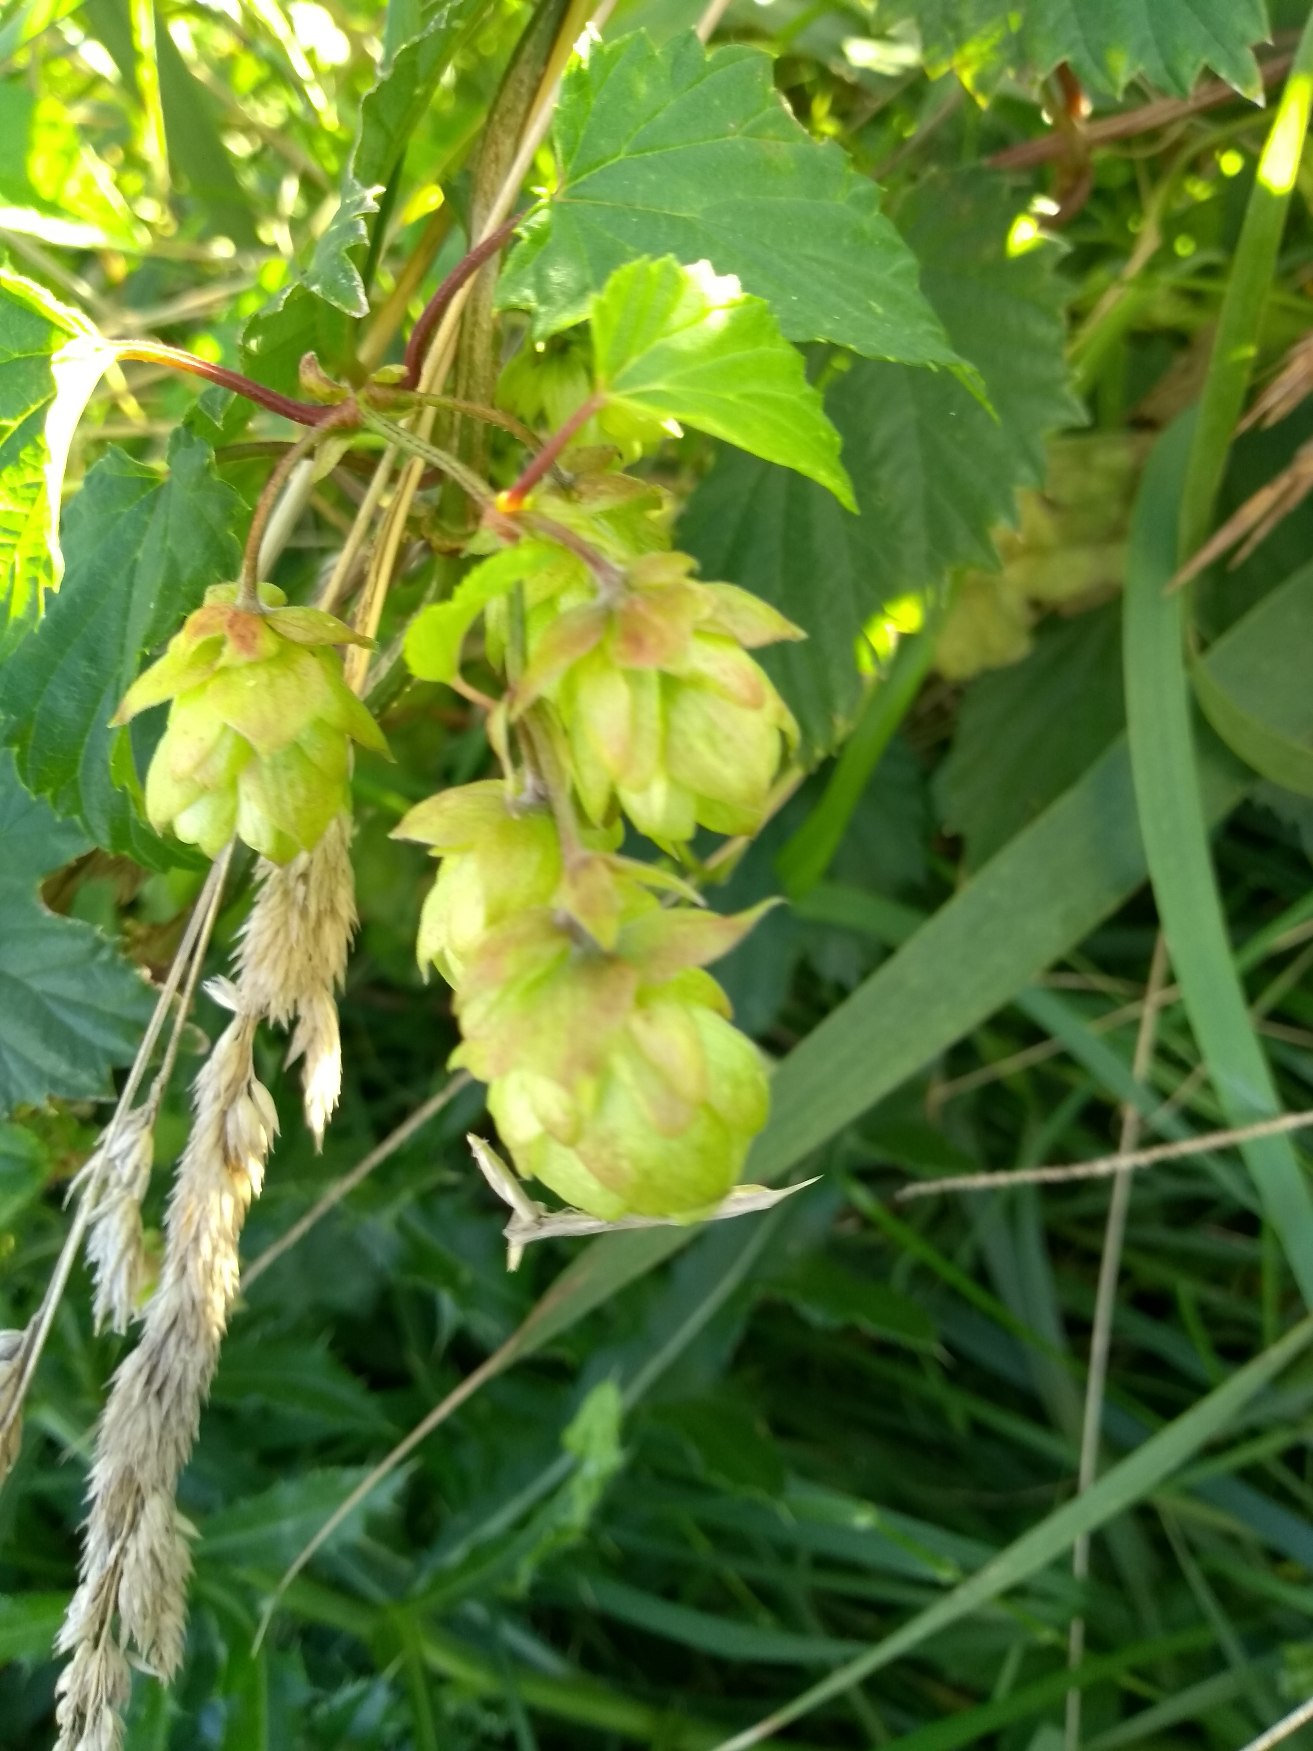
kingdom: Plantae
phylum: Tracheophyta
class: Magnoliopsida
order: Rosales
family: Cannabaceae
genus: Humulus
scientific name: Humulus lupulus
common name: Humle
